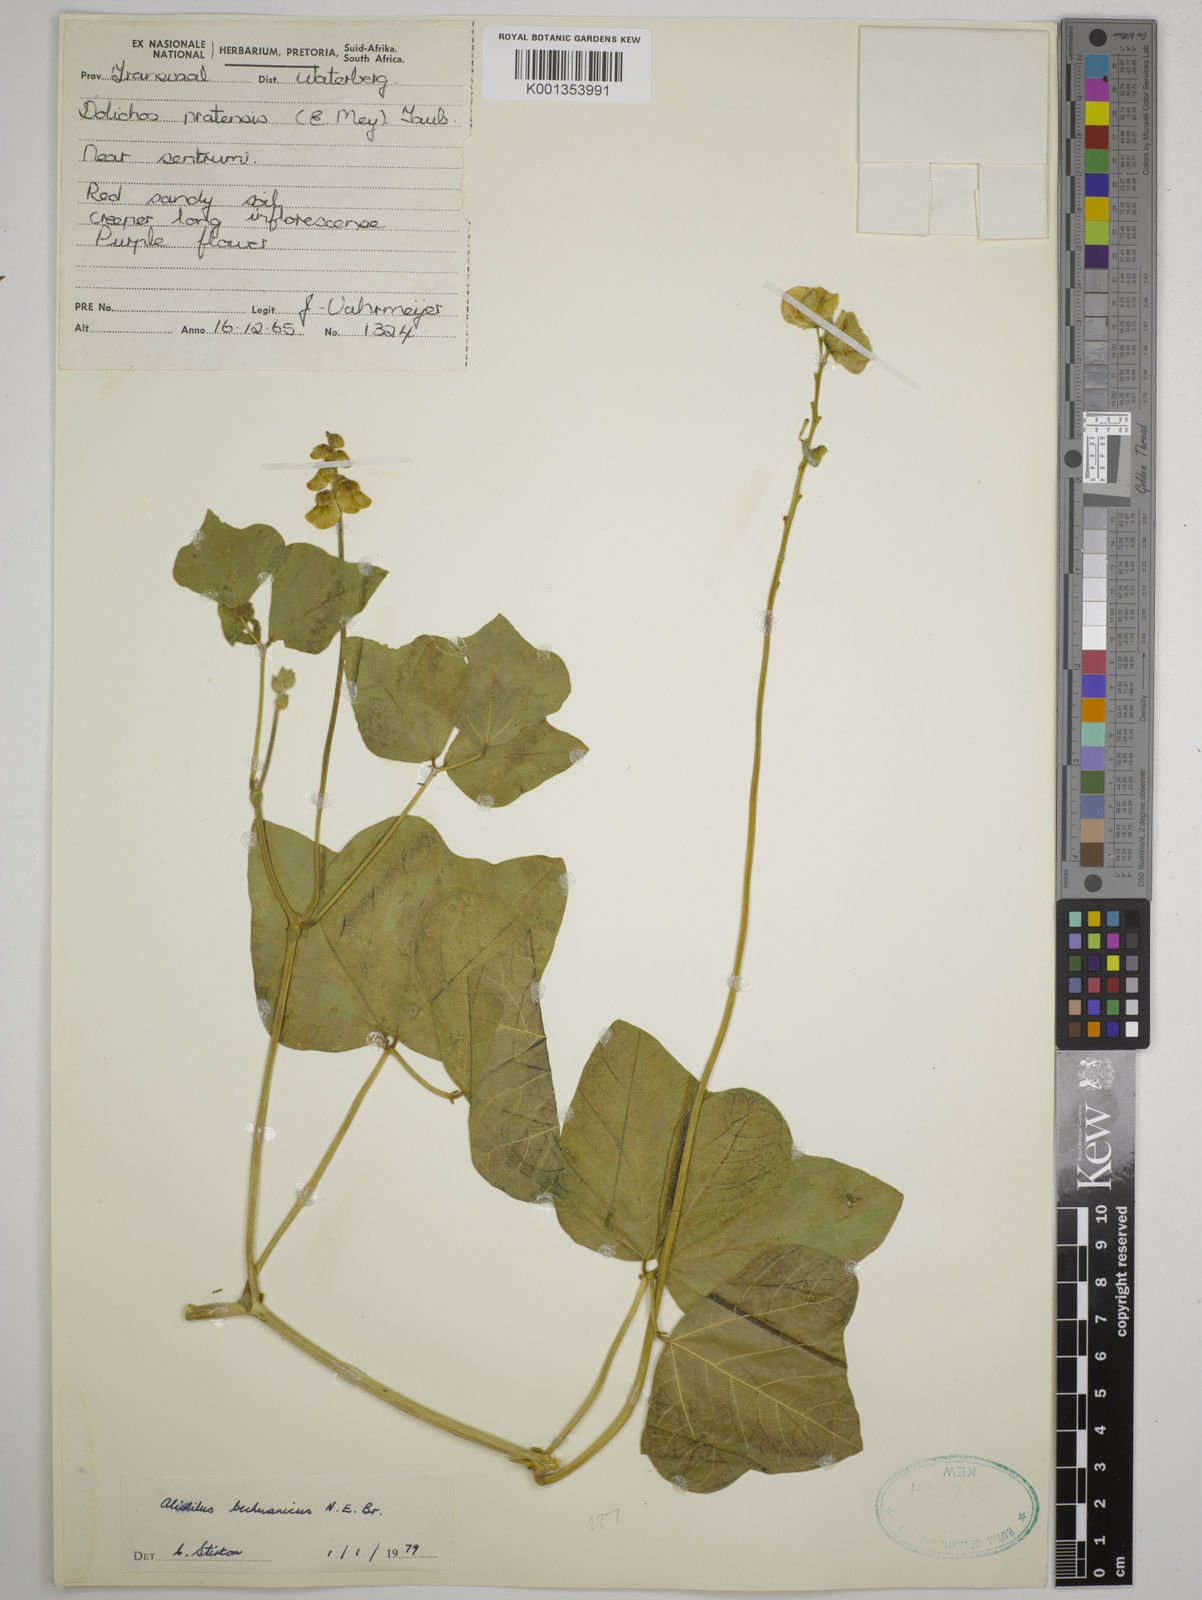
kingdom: Plantae
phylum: Tracheophyta
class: Magnoliopsida
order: Fabales
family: Fabaceae
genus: Alistilus
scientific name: Alistilus bechuanicus
